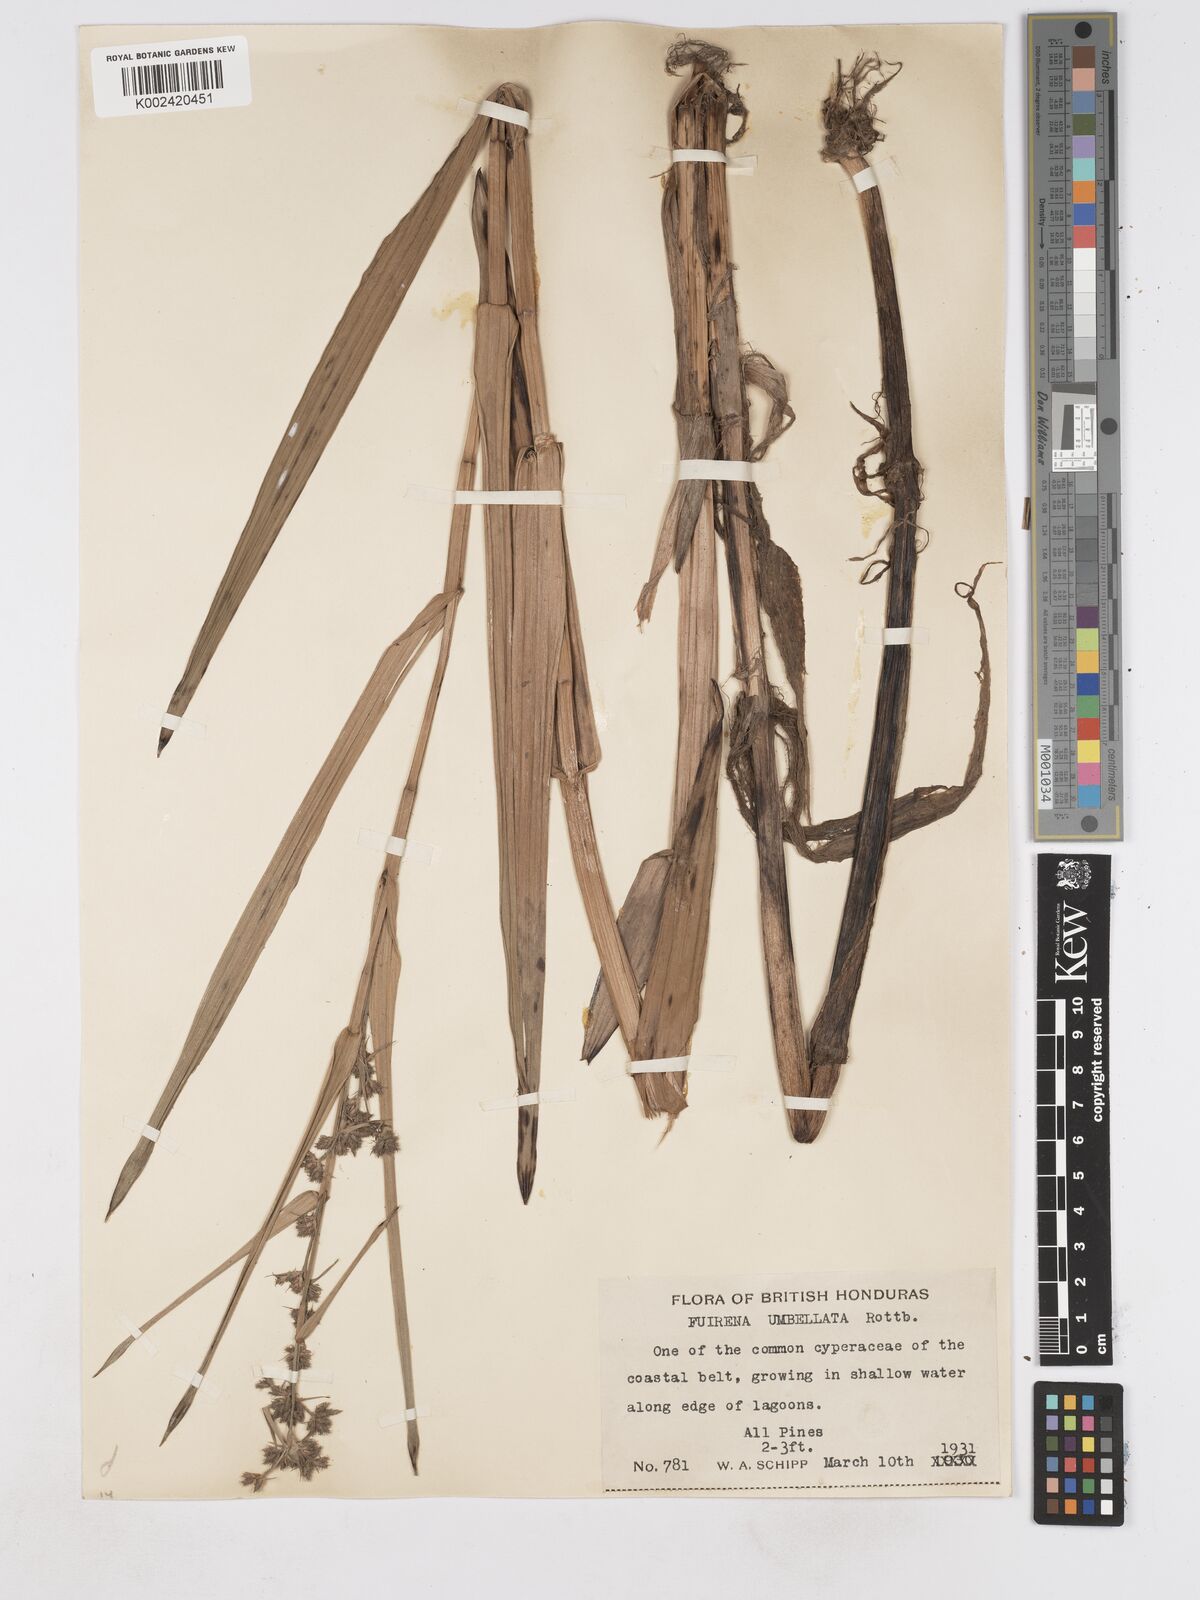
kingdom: Plantae
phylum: Tracheophyta
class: Liliopsida
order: Poales
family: Cyperaceae
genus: Fuirena
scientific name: Fuirena umbellata
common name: Yefen
